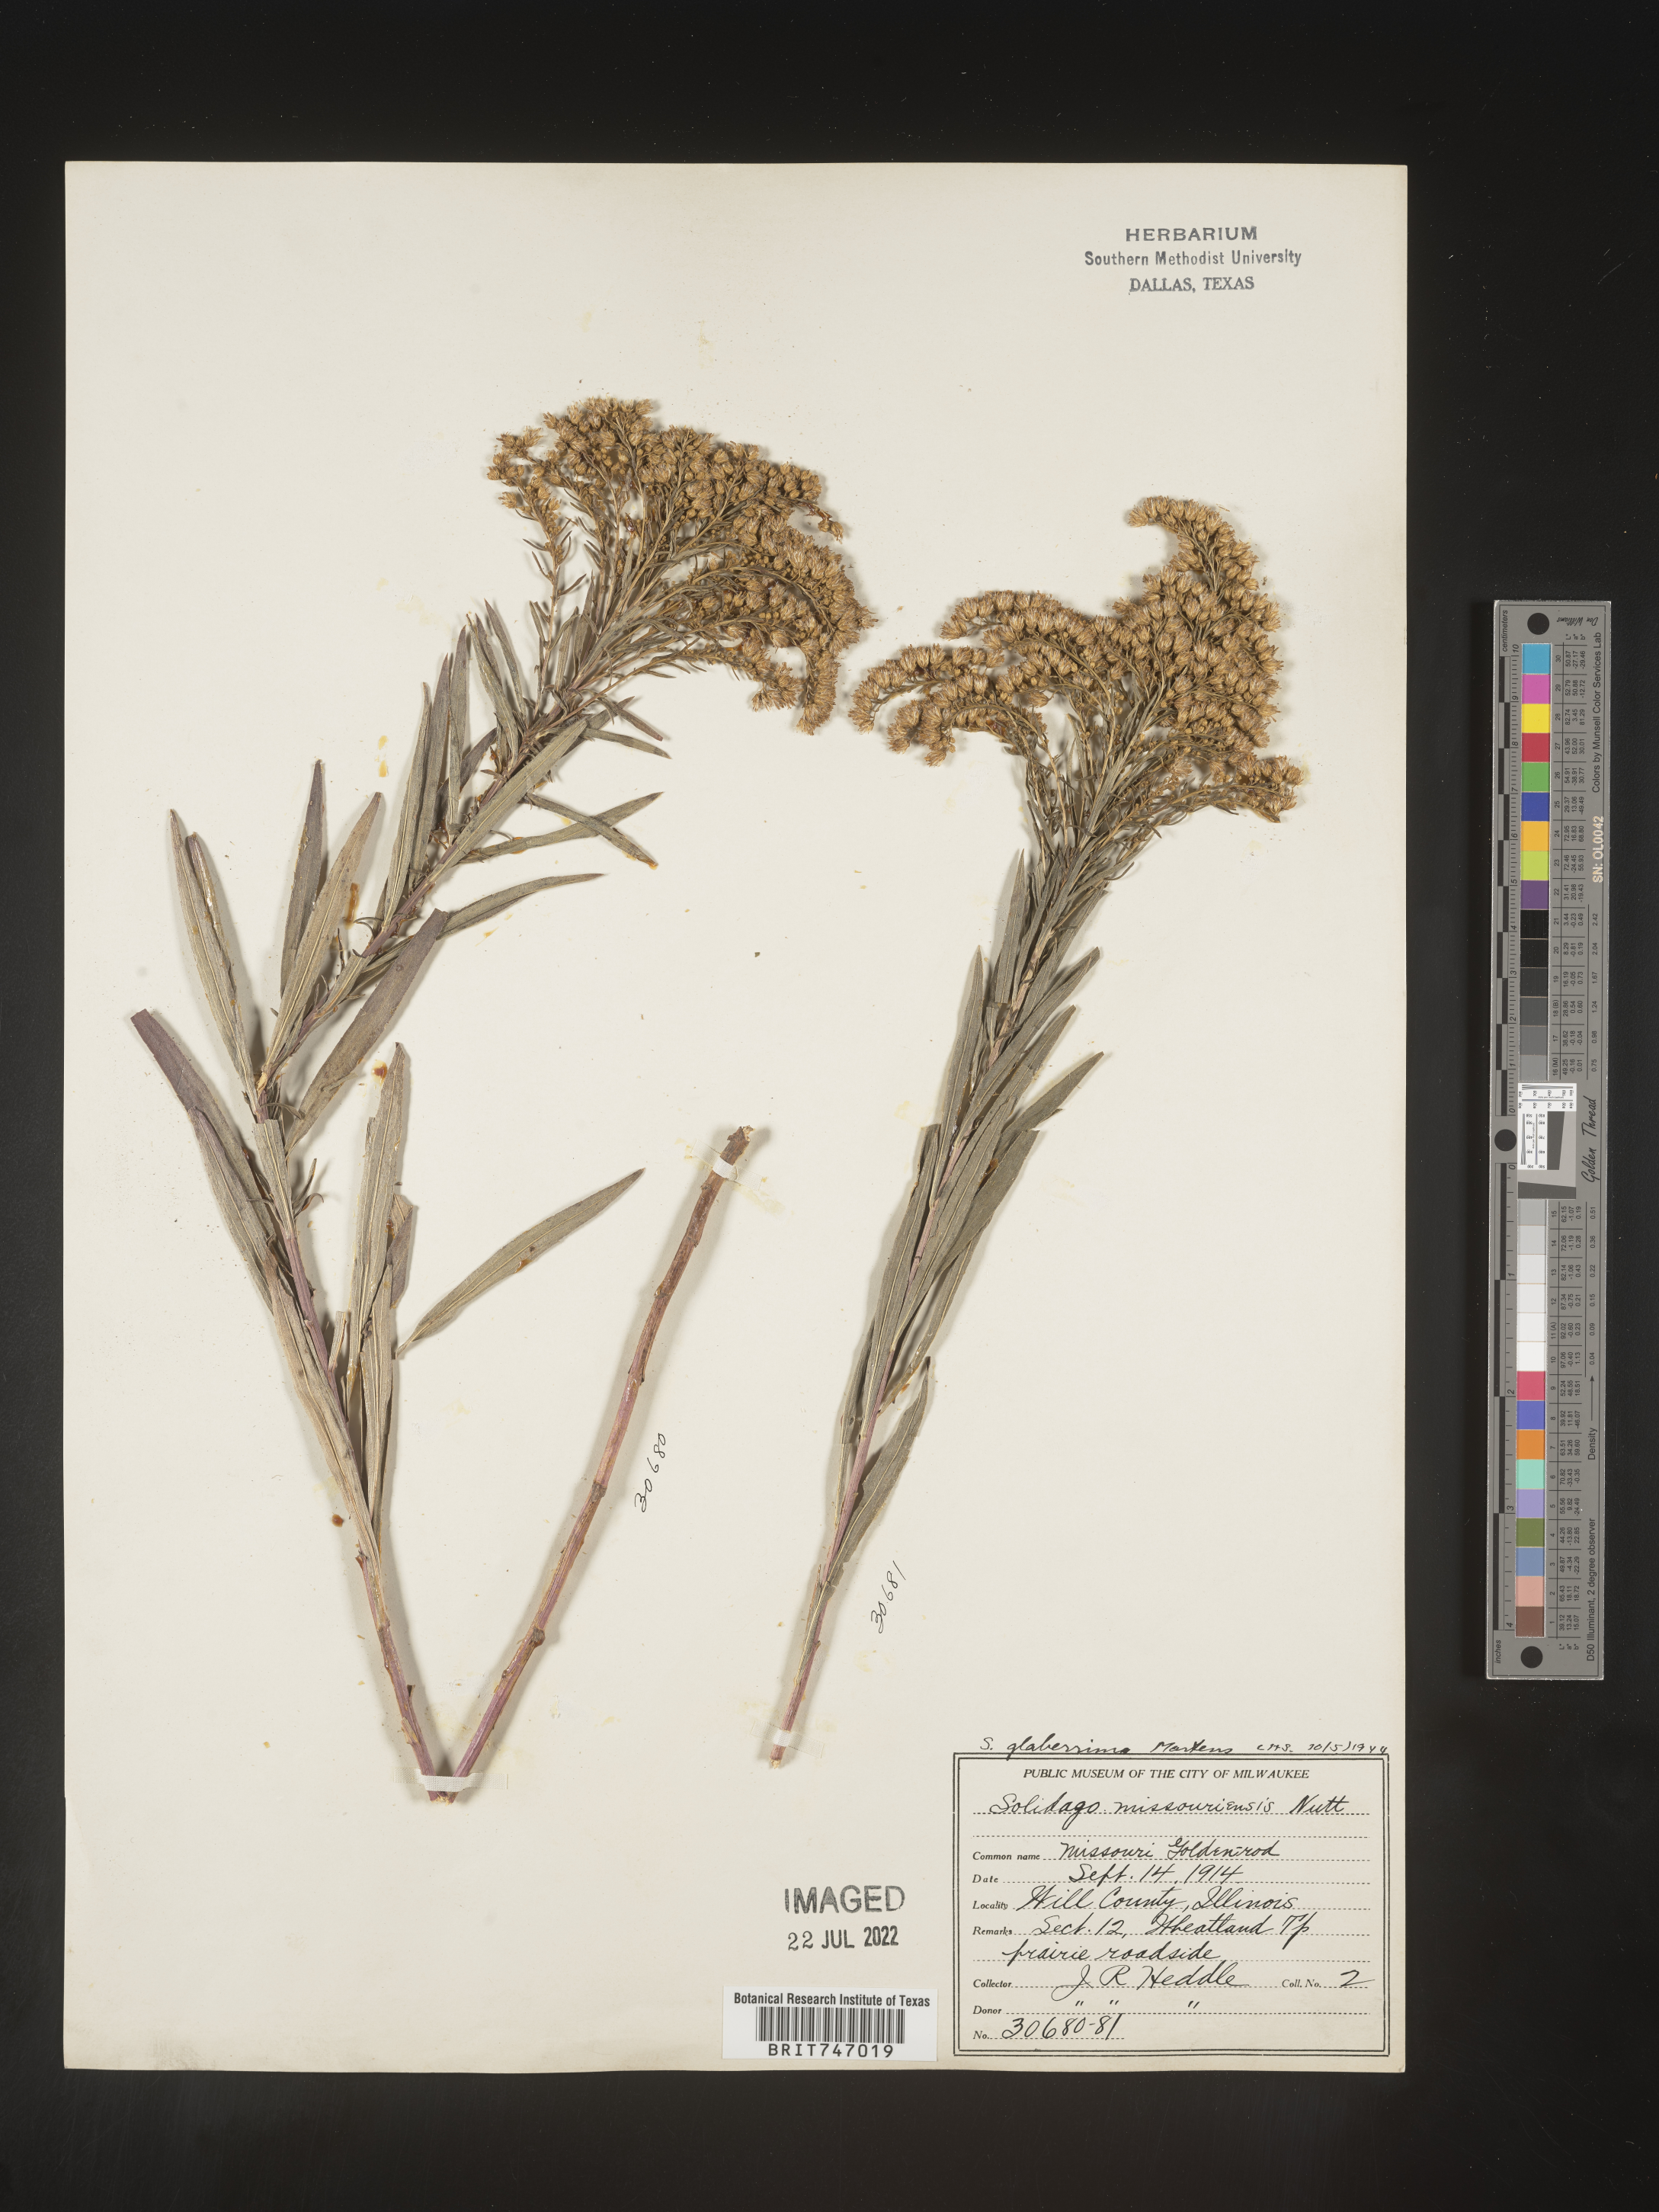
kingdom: Plantae
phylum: Tracheophyta
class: Magnoliopsida
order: Asterales
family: Asteraceae
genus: Solidago
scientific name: Solidago missouriensis
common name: Prairie goldenrod
